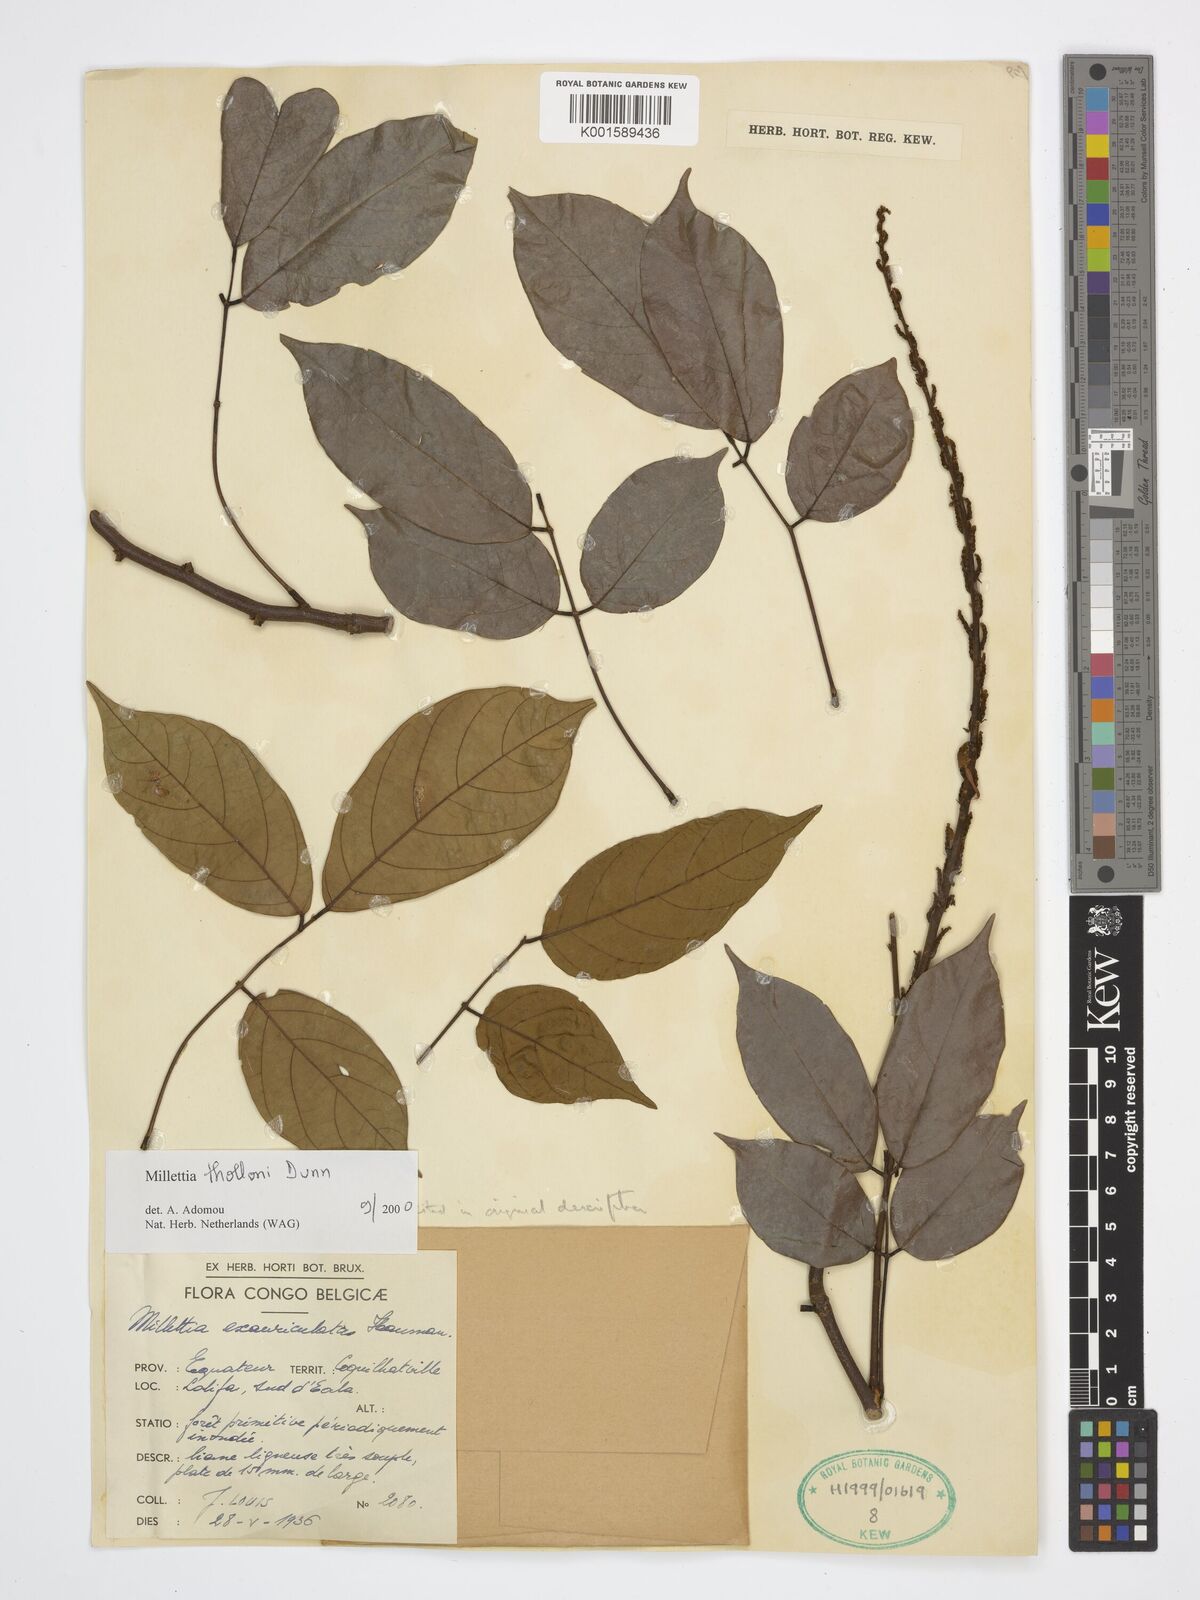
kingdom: Plantae
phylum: Tracheophyta
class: Magnoliopsida
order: Fabales
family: Fabaceae
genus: Millettia
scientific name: Millettia thollonii
